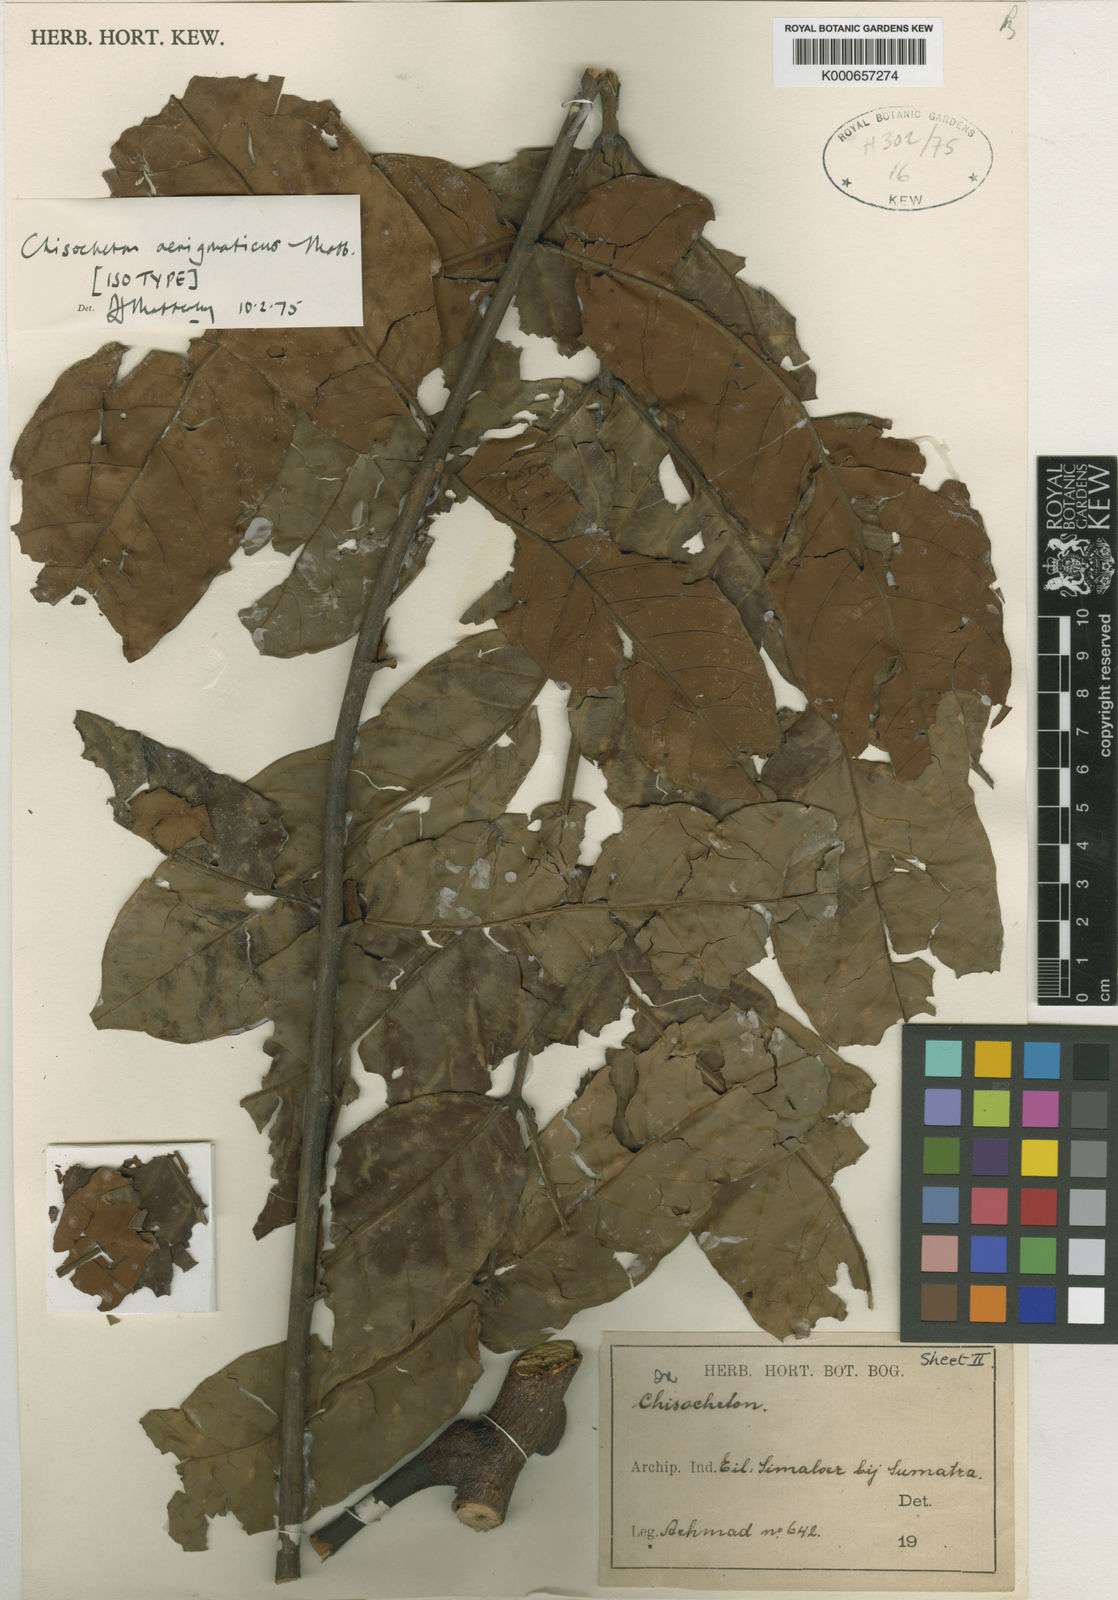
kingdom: Plantae
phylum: Tracheophyta
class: Magnoliopsida
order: Sapindales
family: Meliaceae
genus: Chisocheton
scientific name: Chisocheton aenigmaticus
